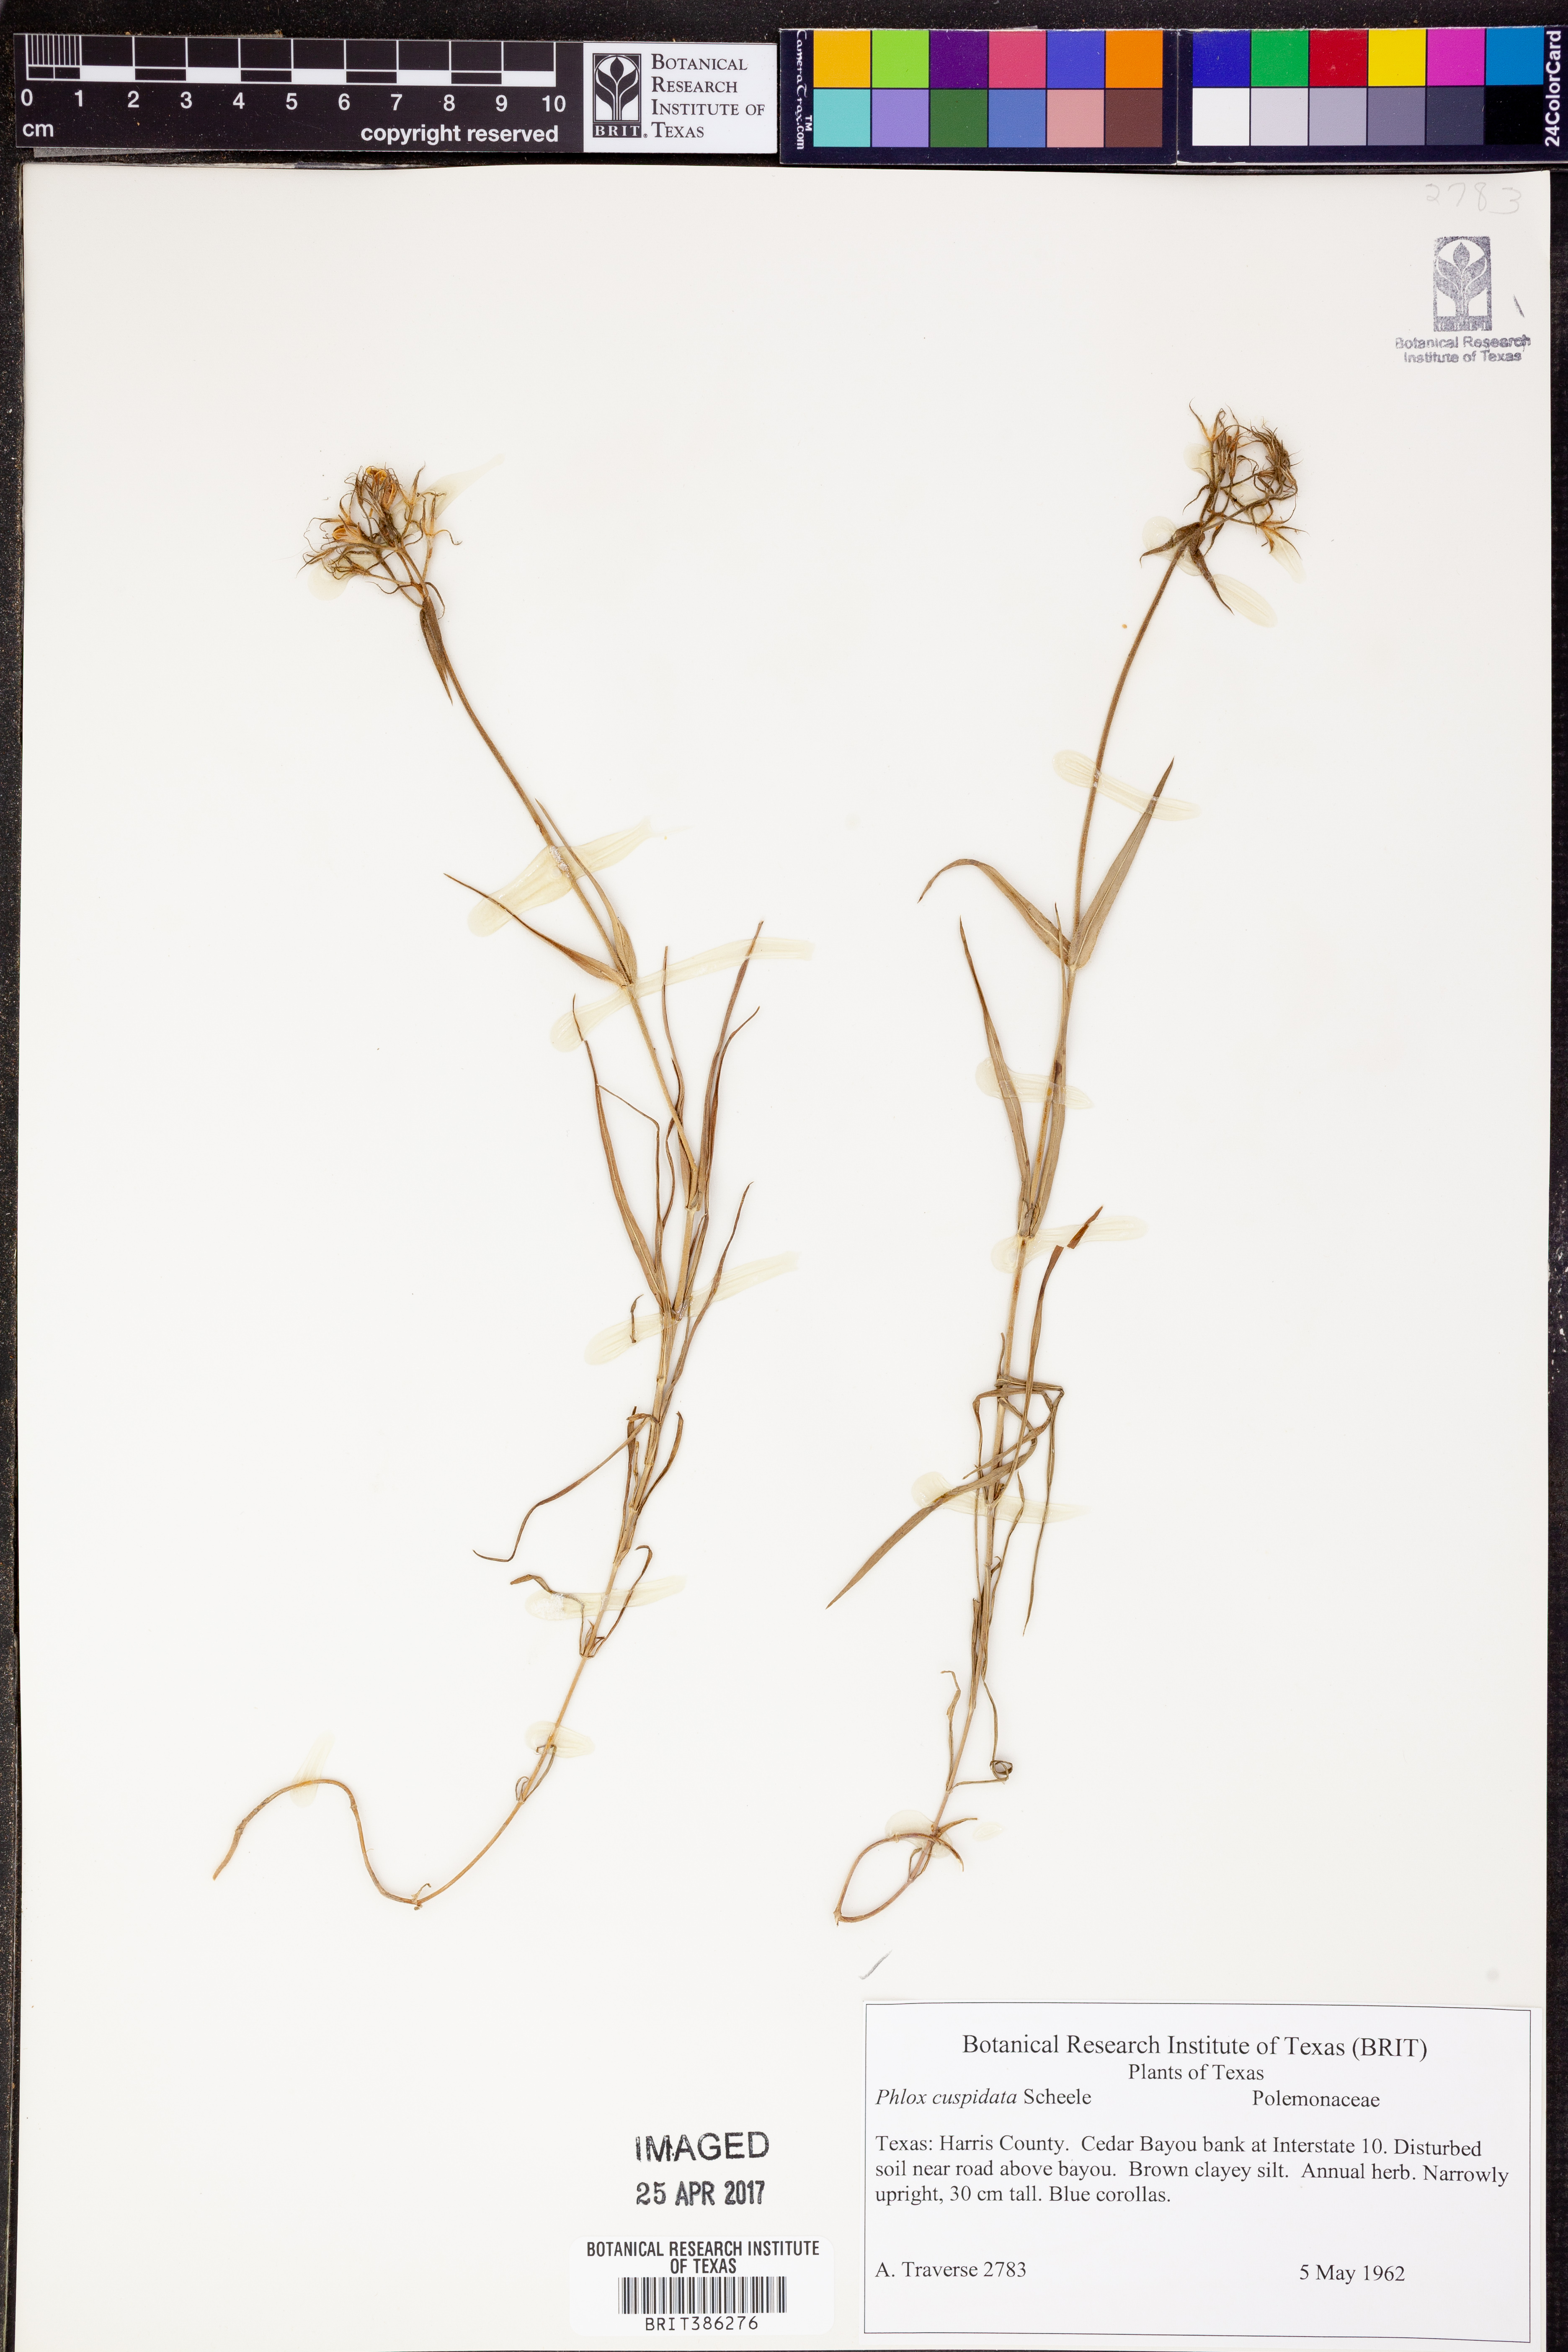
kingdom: Plantae
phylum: Tracheophyta
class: Magnoliopsida
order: Ericales
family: Polemoniaceae
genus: Phlox
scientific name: Phlox cuspidata
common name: Pointed phlox
